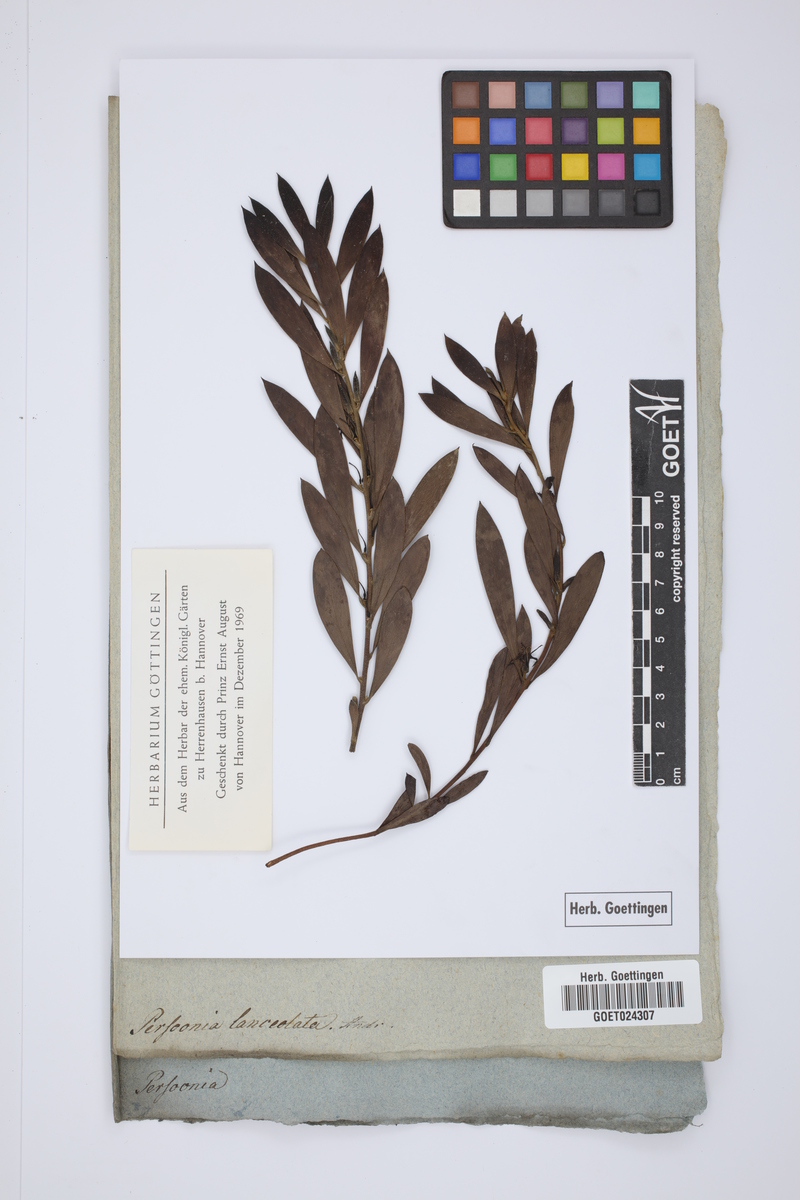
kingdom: Plantae
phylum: Tracheophyta
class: Magnoliopsida
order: Proteales
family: Proteaceae
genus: Persoonia
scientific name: Persoonia lanceolata
